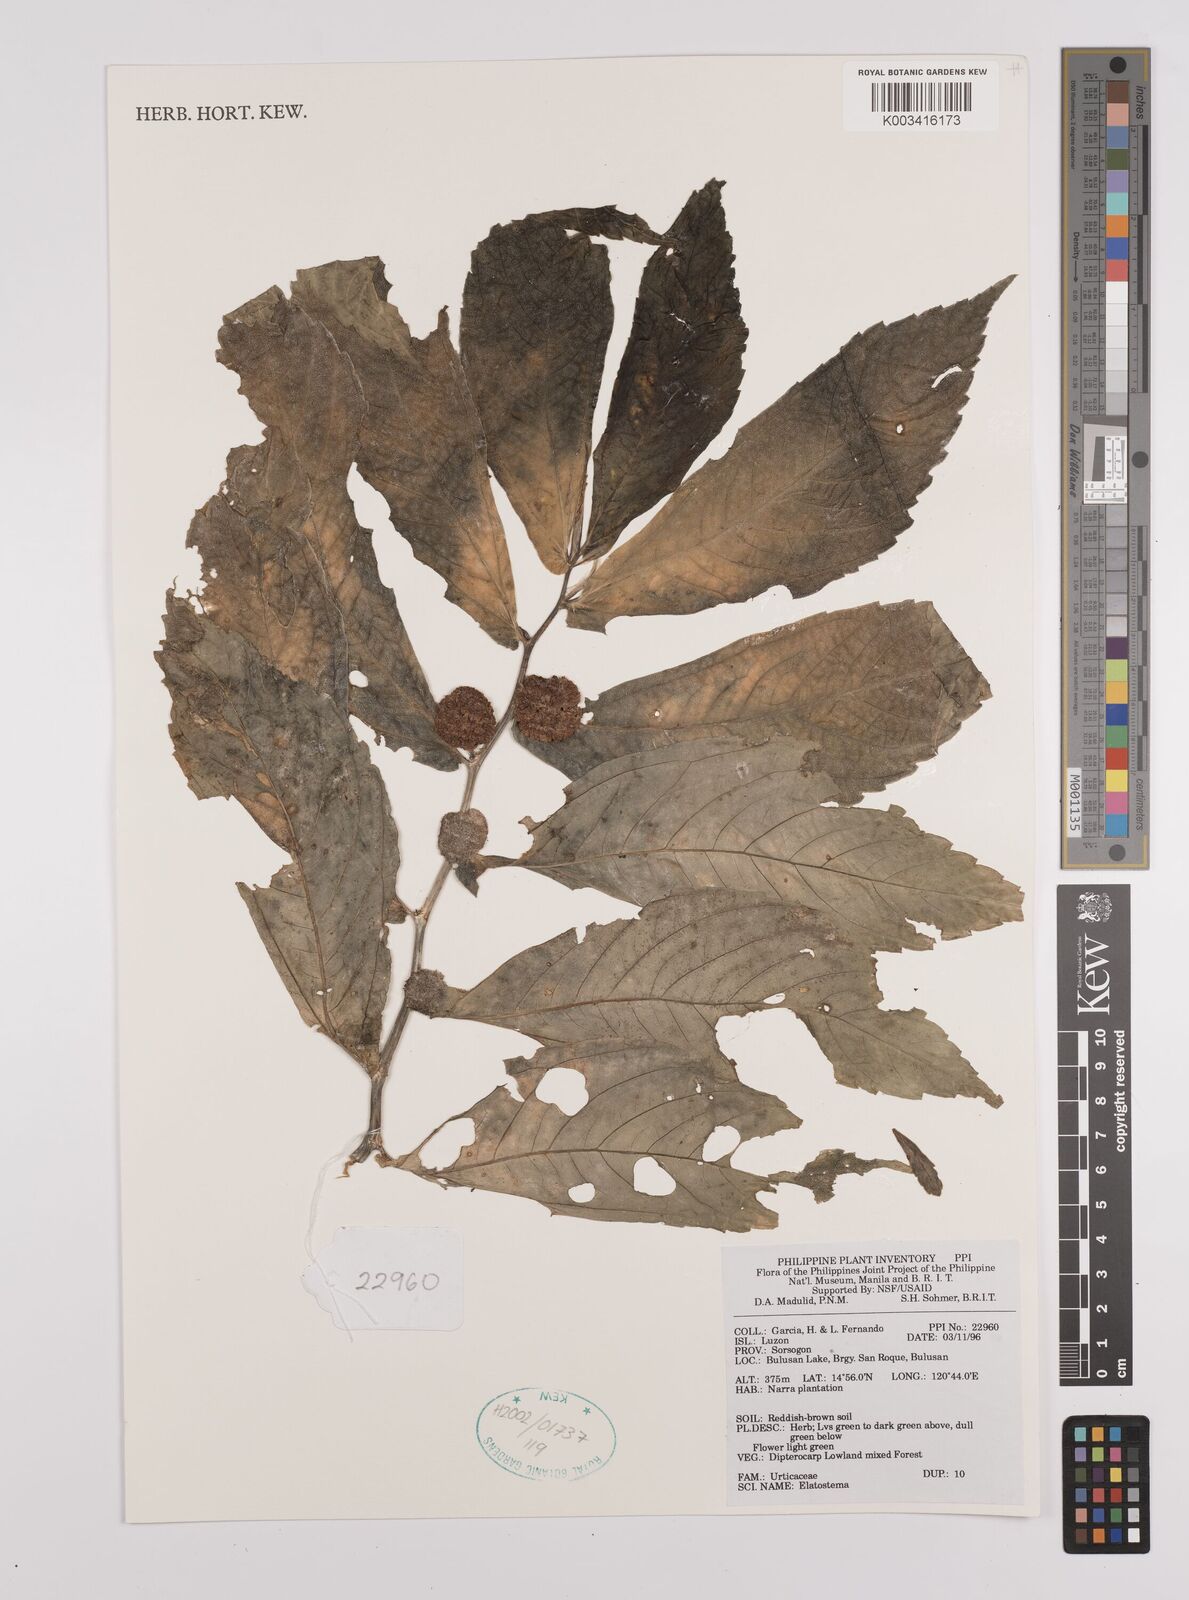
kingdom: Plantae
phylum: Tracheophyta
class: Magnoliopsida
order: Rosales
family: Urticaceae
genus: Elatostema
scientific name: Elatostema
